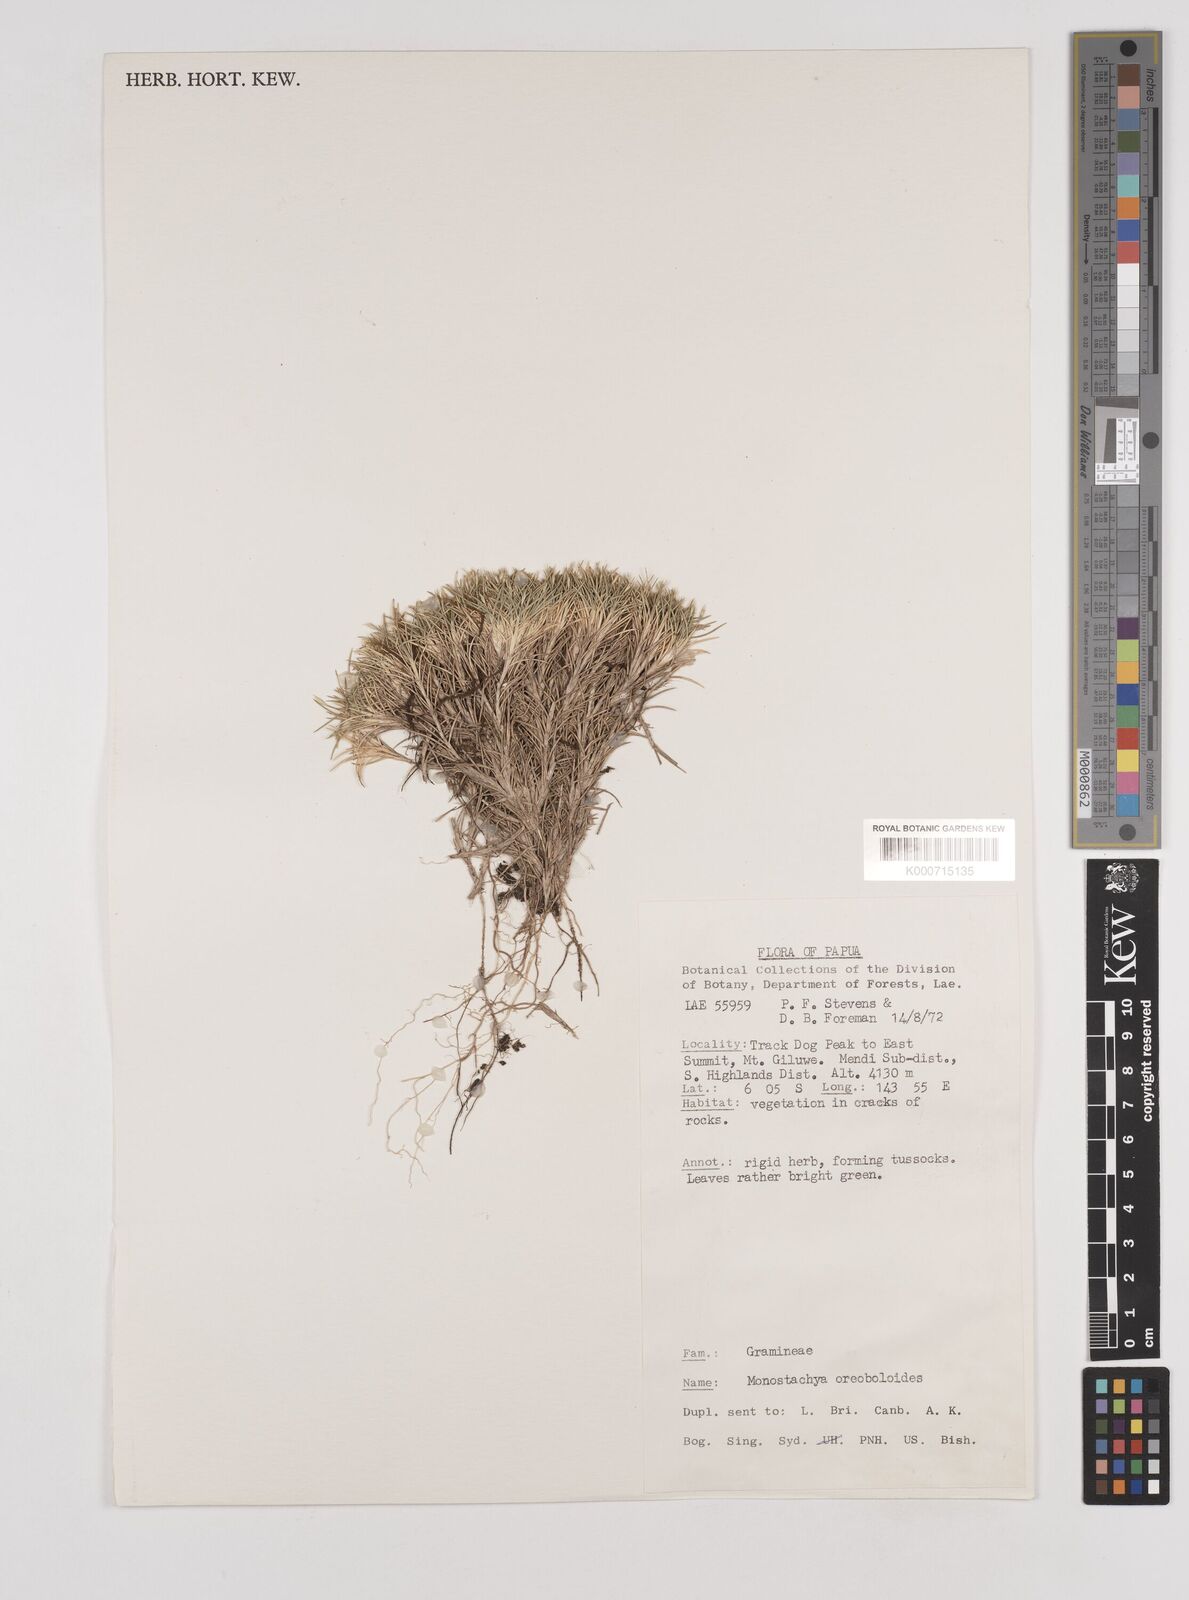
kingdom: Plantae
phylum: Tracheophyta
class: Liliopsida
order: Poales
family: Poaceae
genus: Rytidosperma
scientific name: Rytidosperma oreoboloides
